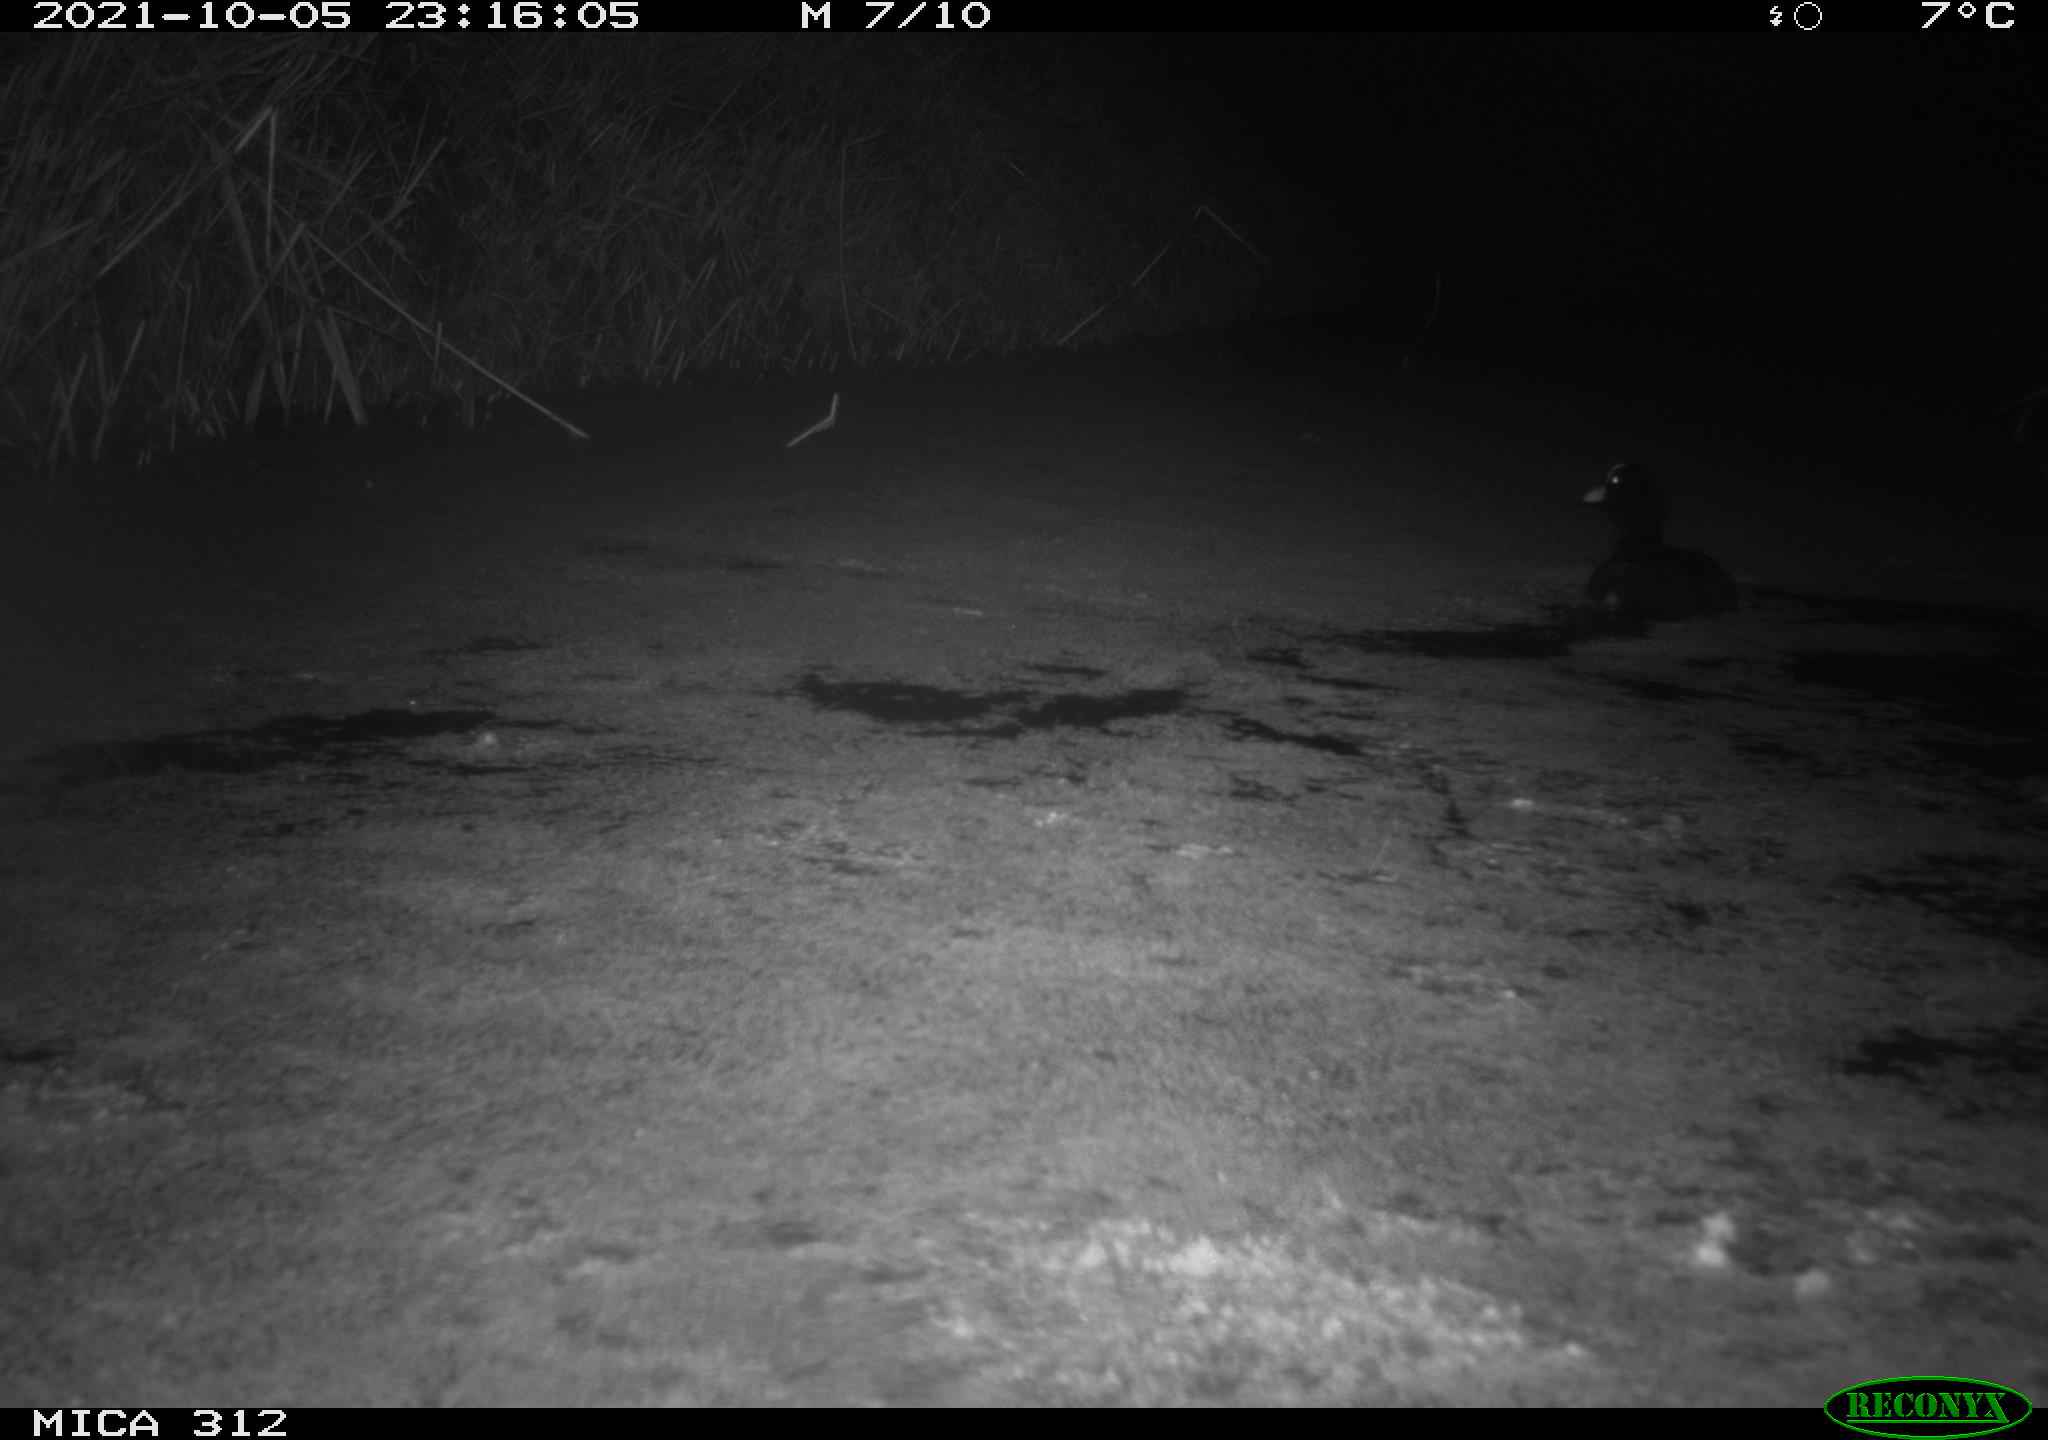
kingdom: Animalia
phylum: Chordata
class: Aves
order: Anseriformes
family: Anatidae
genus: Anas
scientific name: Anas
